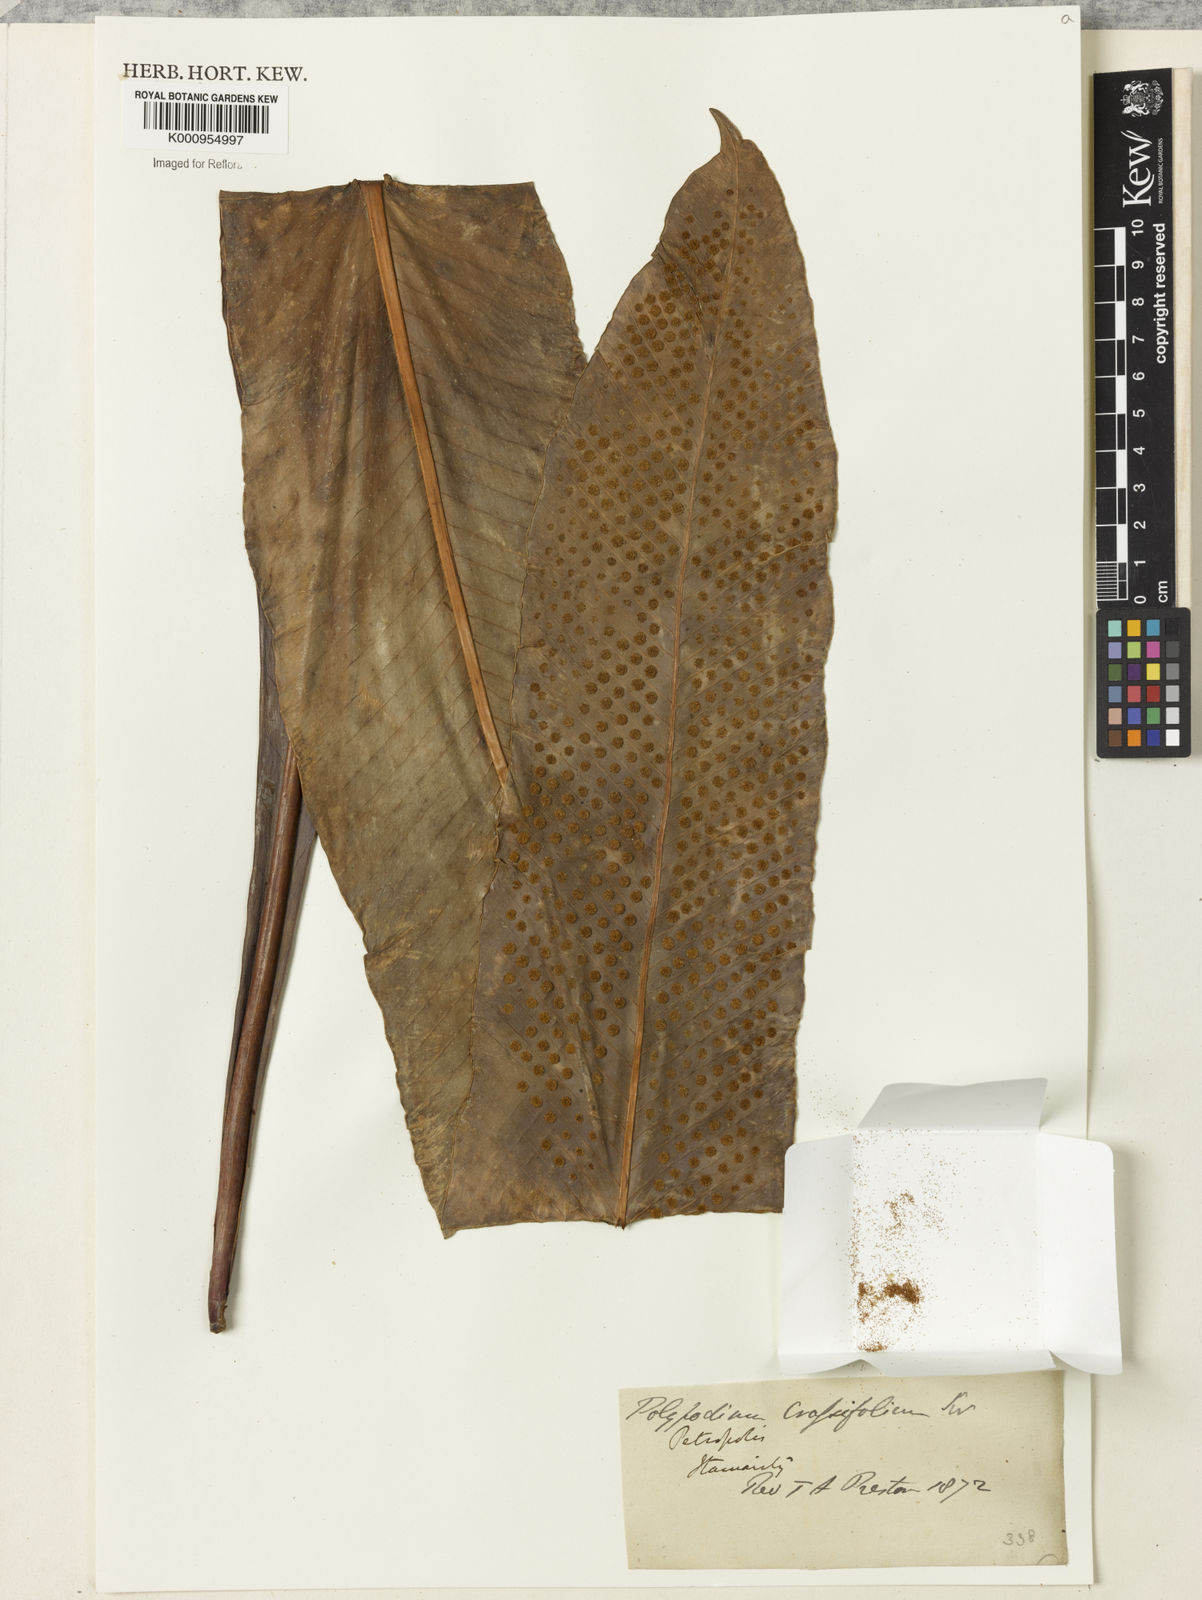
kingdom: Plantae
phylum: Tracheophyta
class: Polypodiopsida
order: Polypodiales
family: Polypodiaceae
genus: Niphidium
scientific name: Niphidium crassifolium
